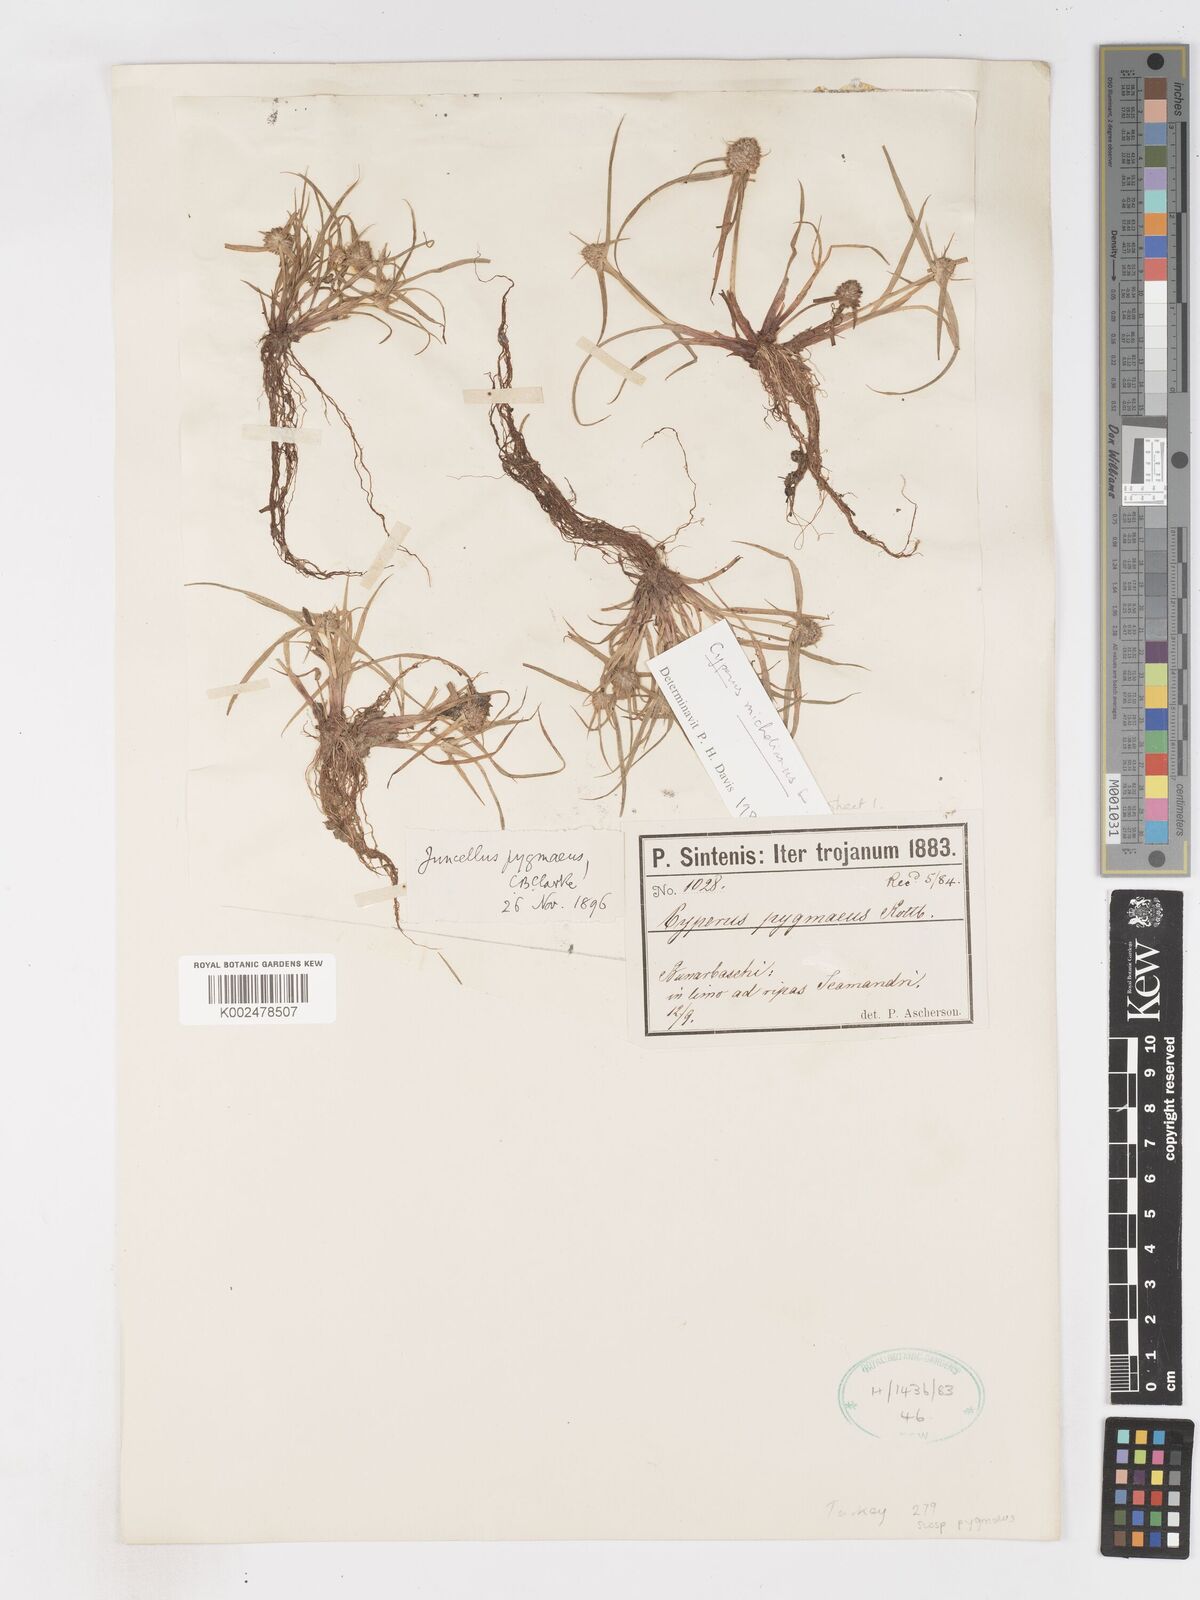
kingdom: Plantae
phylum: Tracheophyta
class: Liliopsida
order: Poales
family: Cyperaceae
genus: Cyperus
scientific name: Cyperus capitatus
